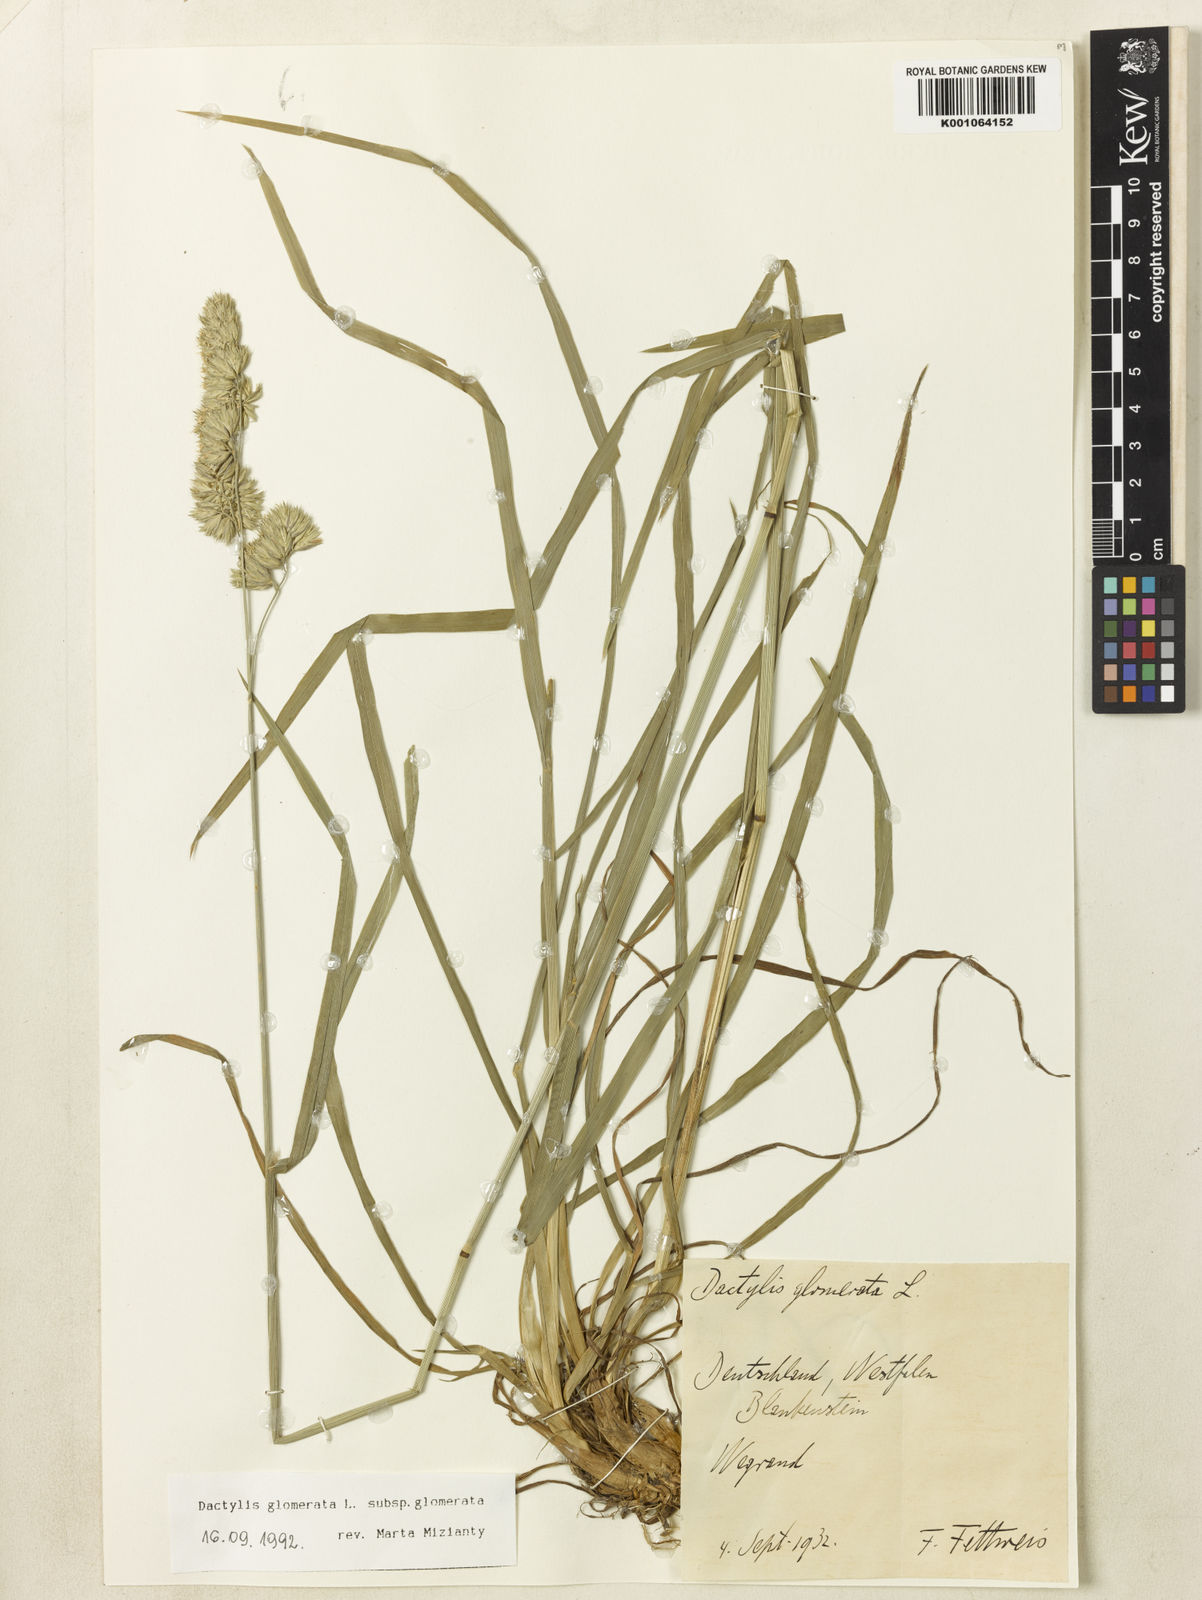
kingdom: Plantae
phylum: Tracheophyta
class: Liliopsida
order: Poales
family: Poaceae
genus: Dactylis
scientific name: Dactylis glomerata
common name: Orchardgrass
